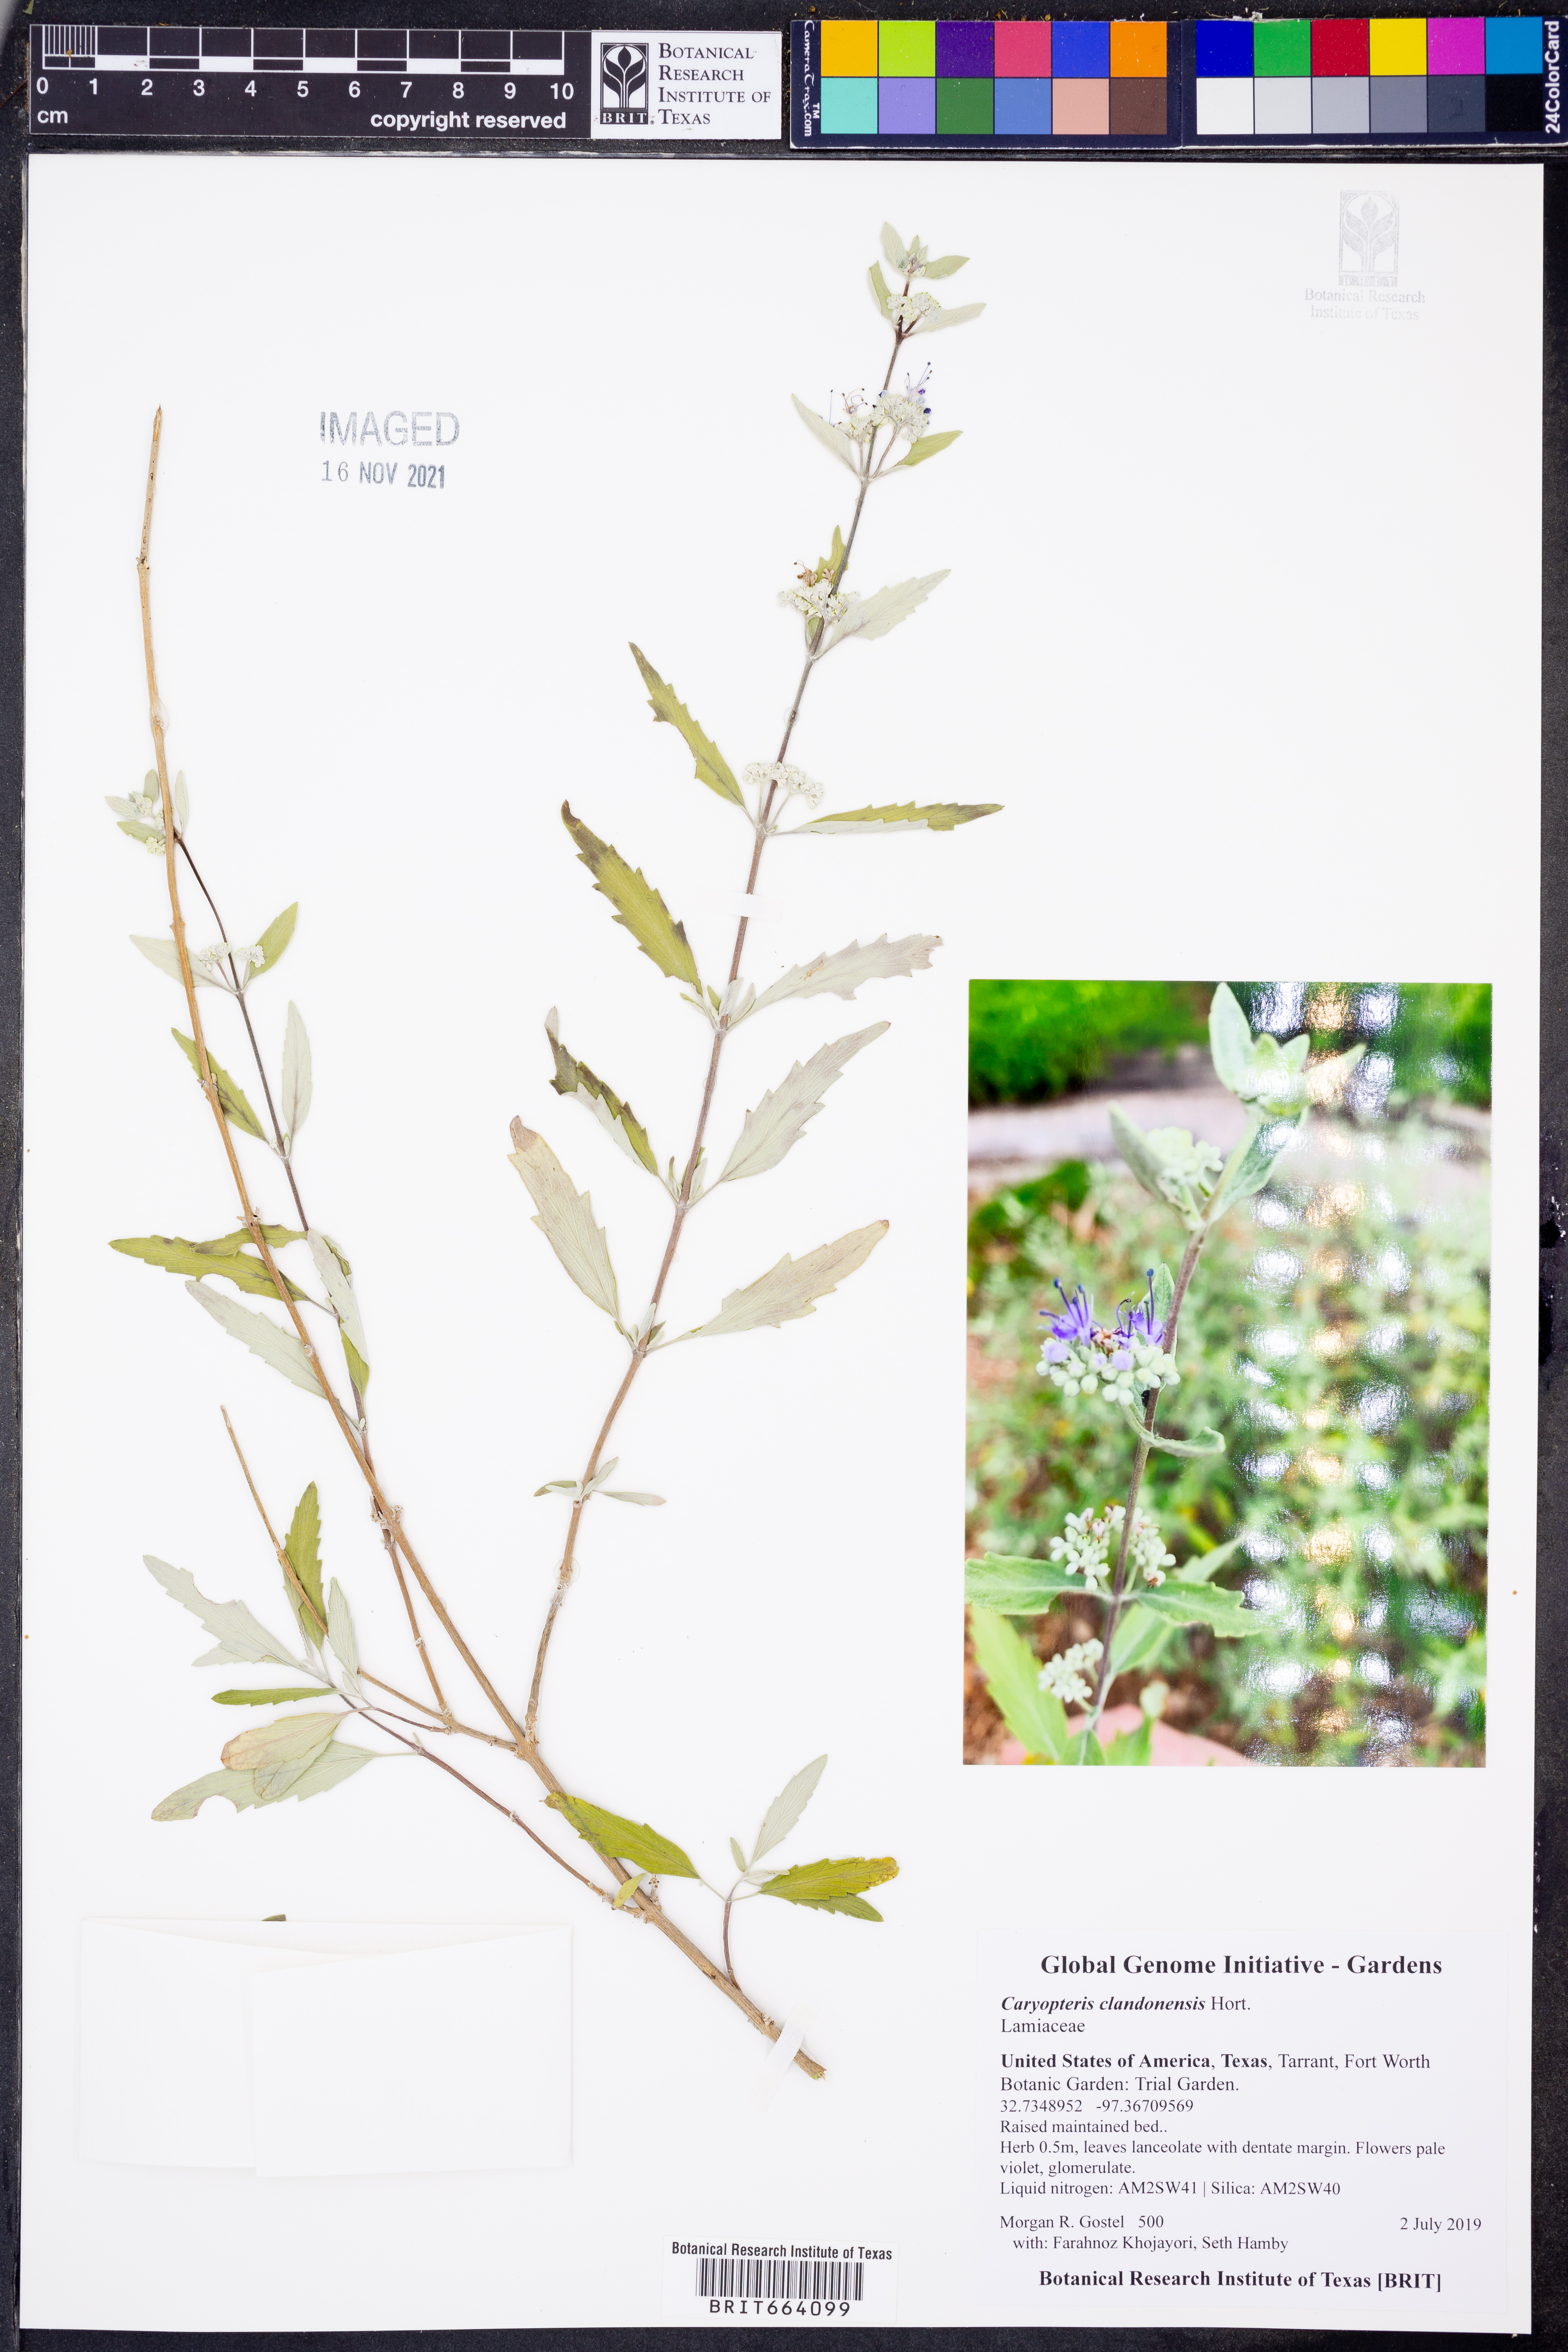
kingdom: Plantae
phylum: Tracheophyta
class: Magnoliopsida
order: Lamiales
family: Lamiaceae
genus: Caryopteris
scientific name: Caryopteris clandonensis
